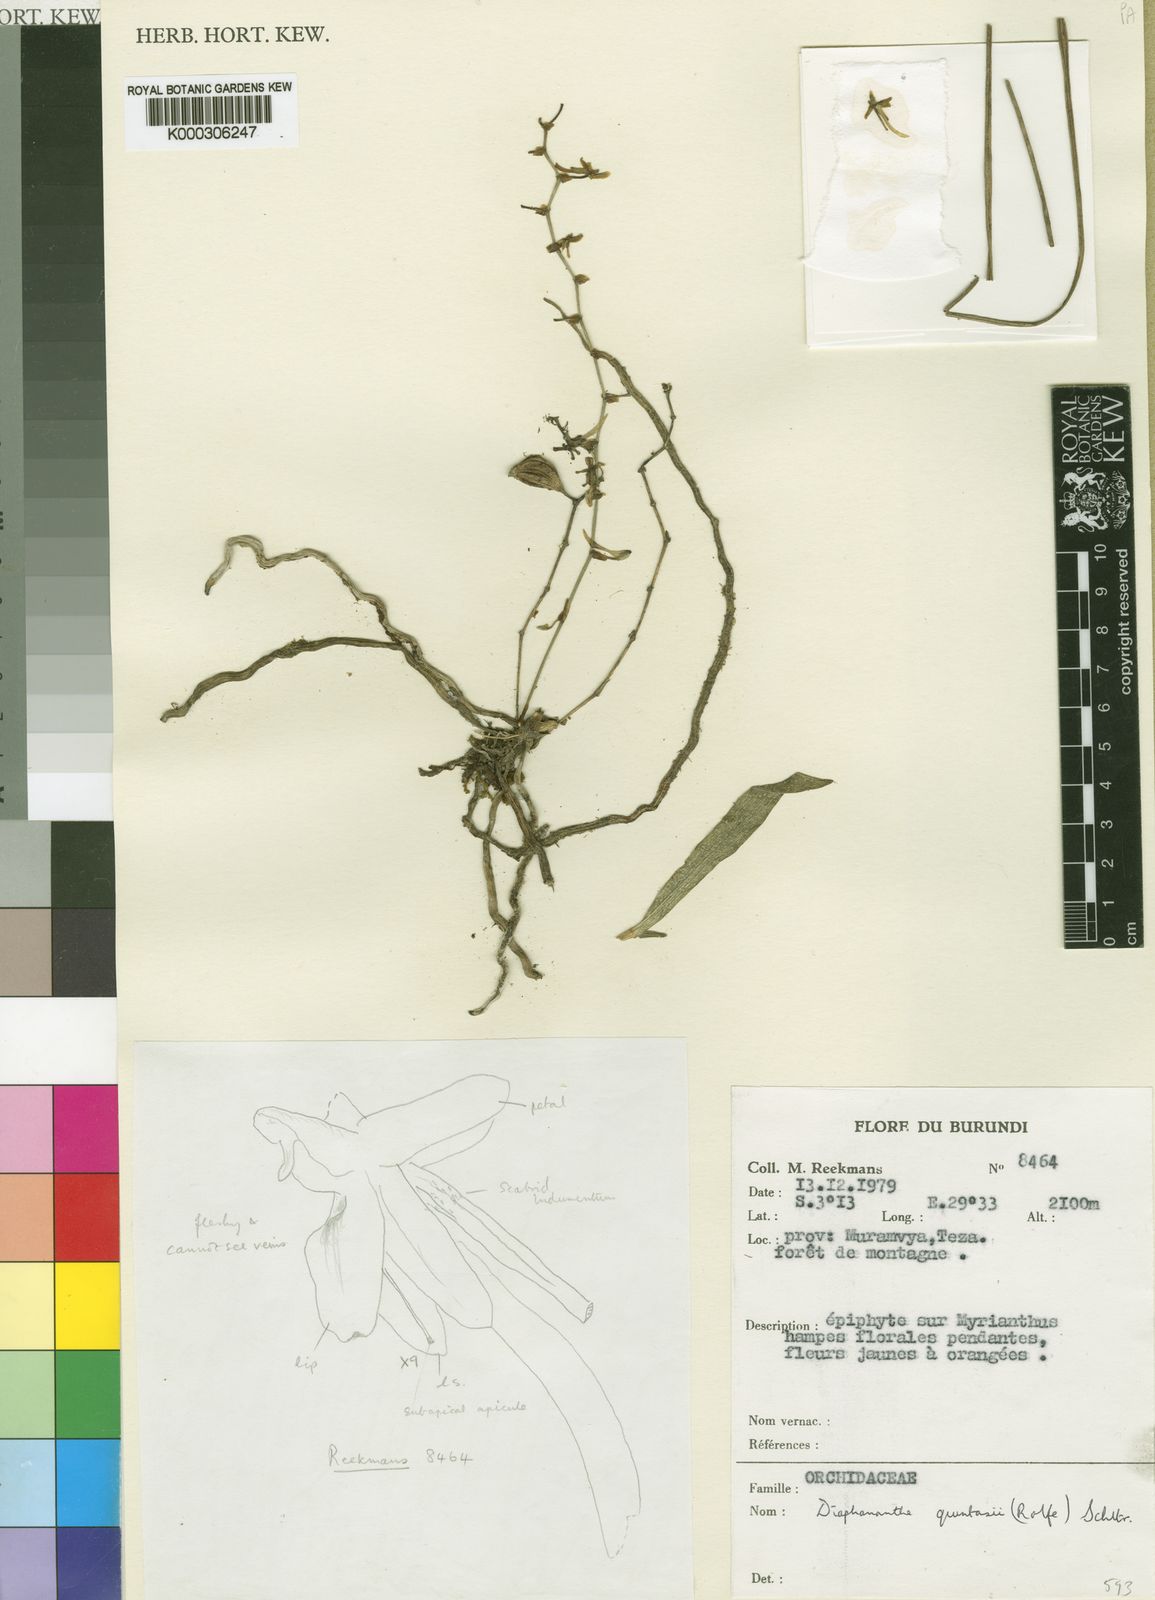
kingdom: Plantae
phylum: Tracheophyta
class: Liliopsida
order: Asparagales
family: Orchidaceae
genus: Kylicanthe
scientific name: Kylicanthe rohrii
